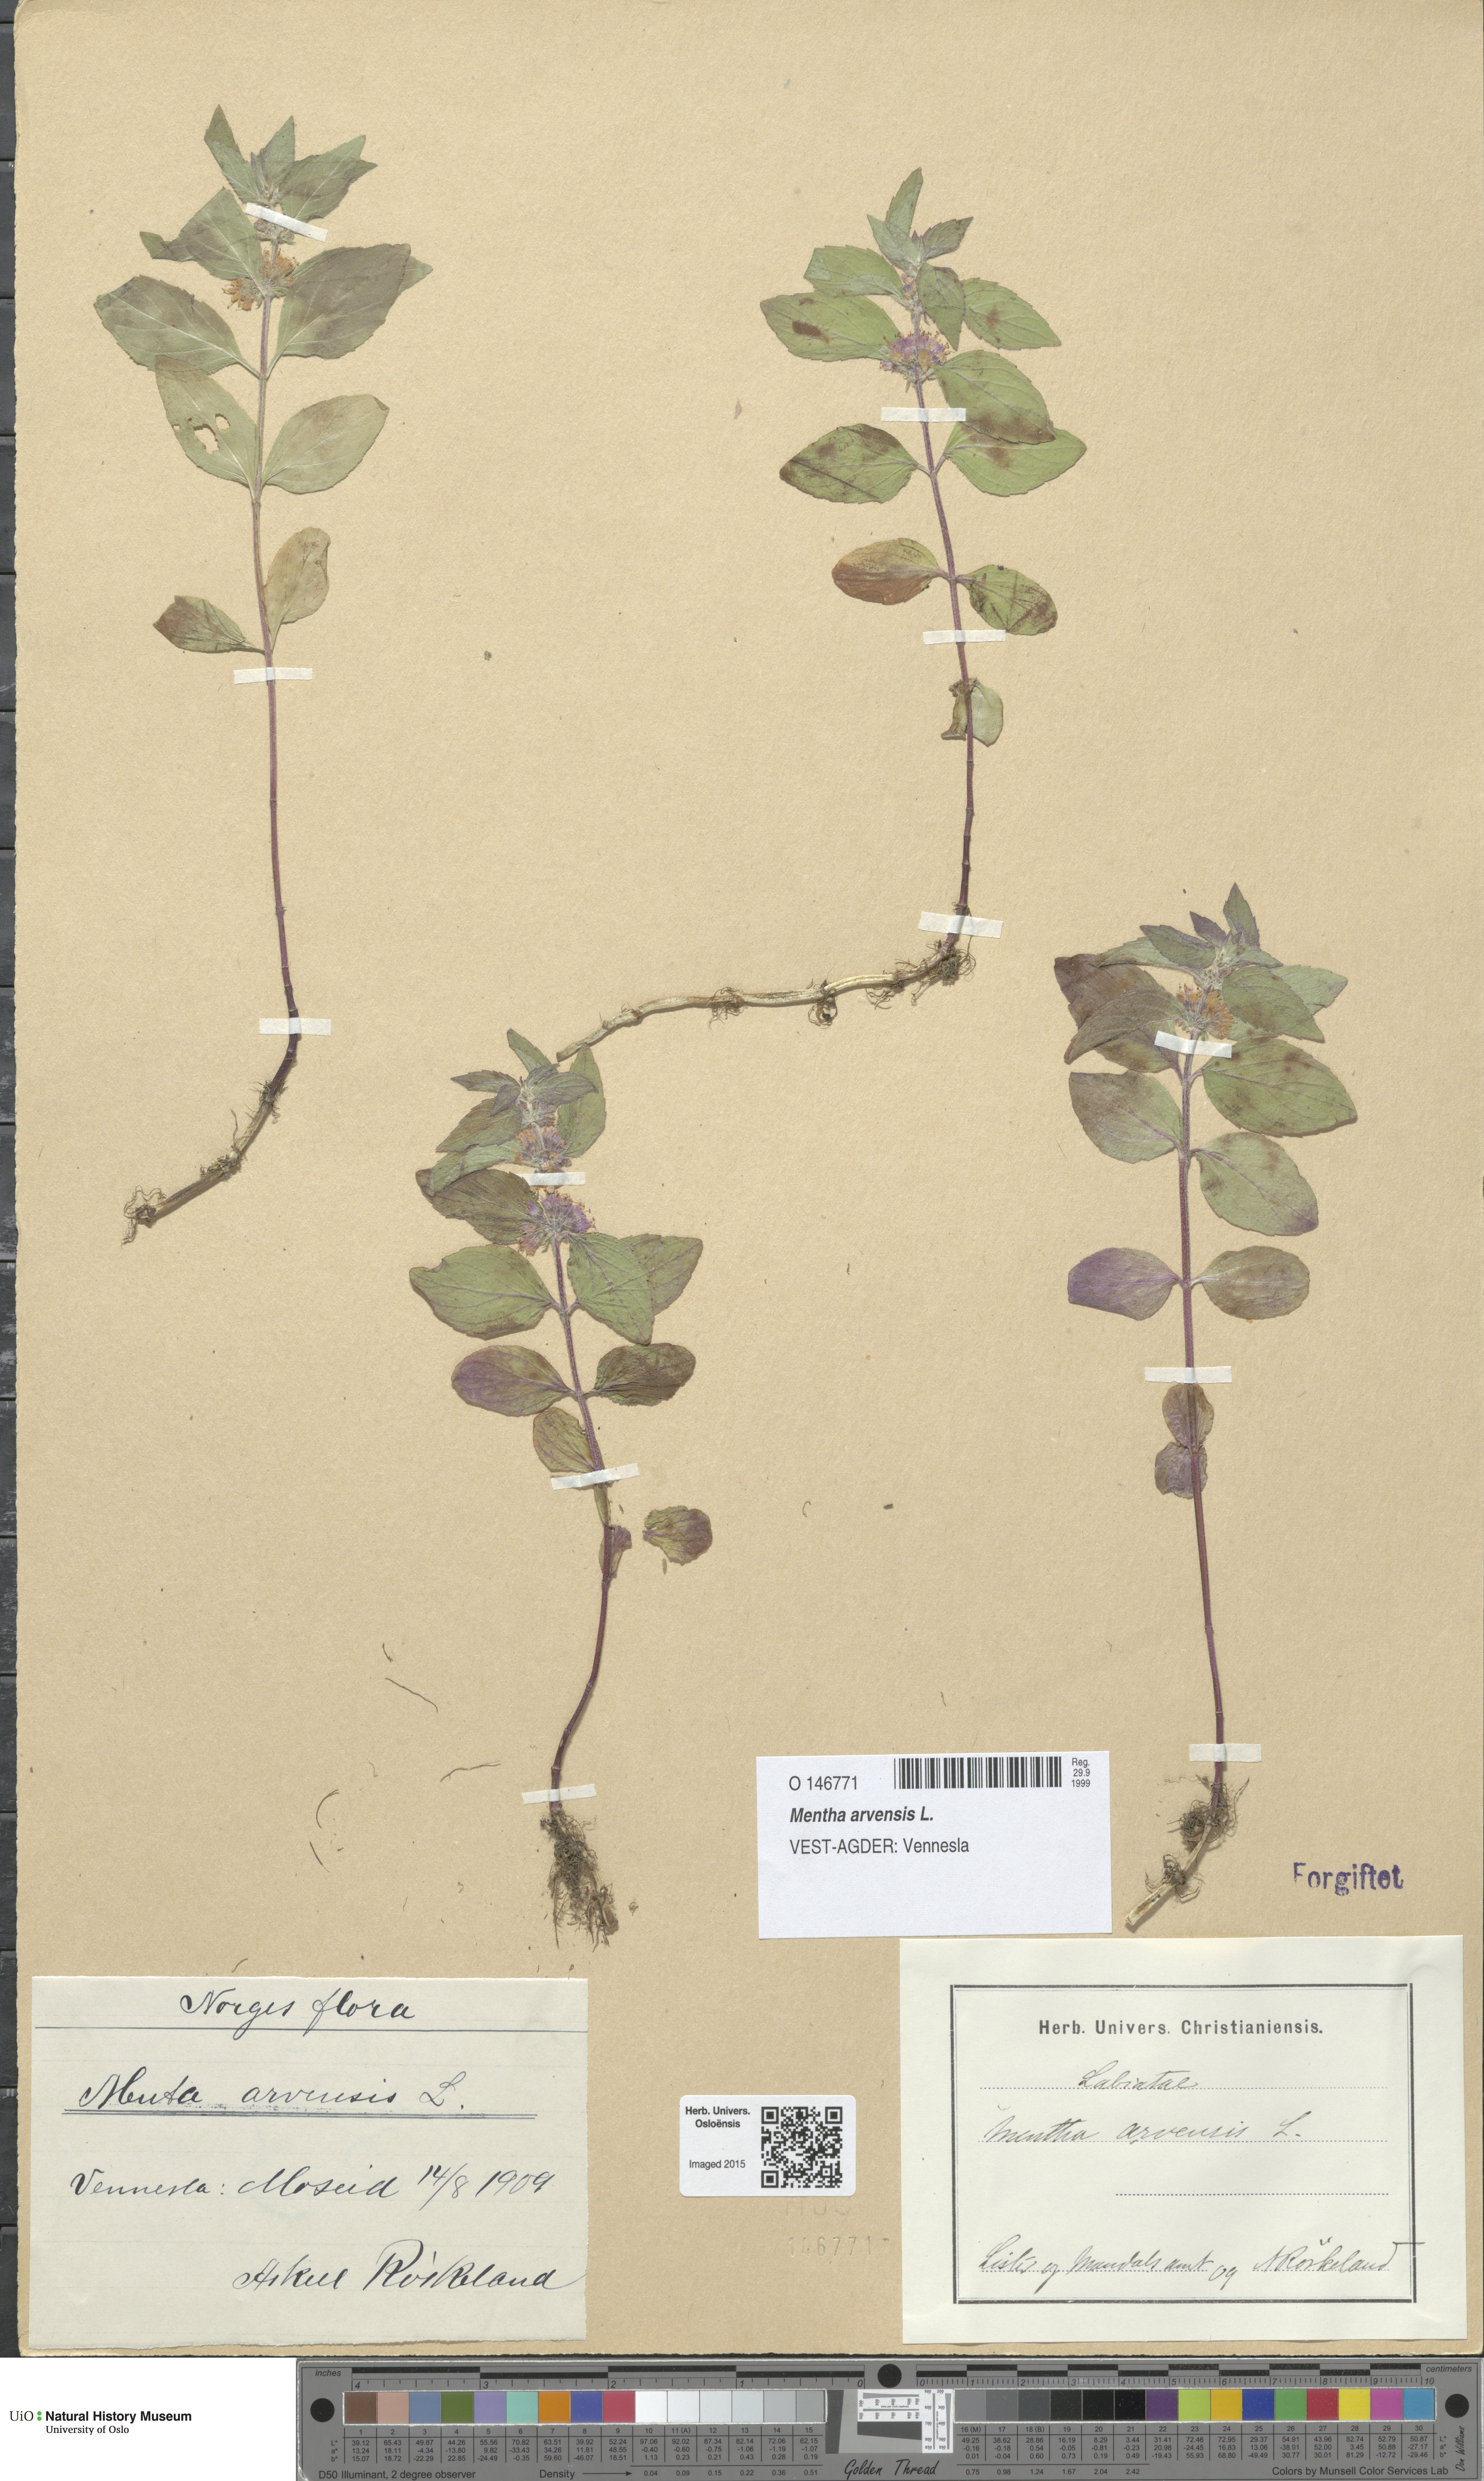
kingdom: Plantae
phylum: Tracheophyta
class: Magnoliopsida
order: Lamiales
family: Lamiaceae
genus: Mentha
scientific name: Mentha arvensis
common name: Corn mint
